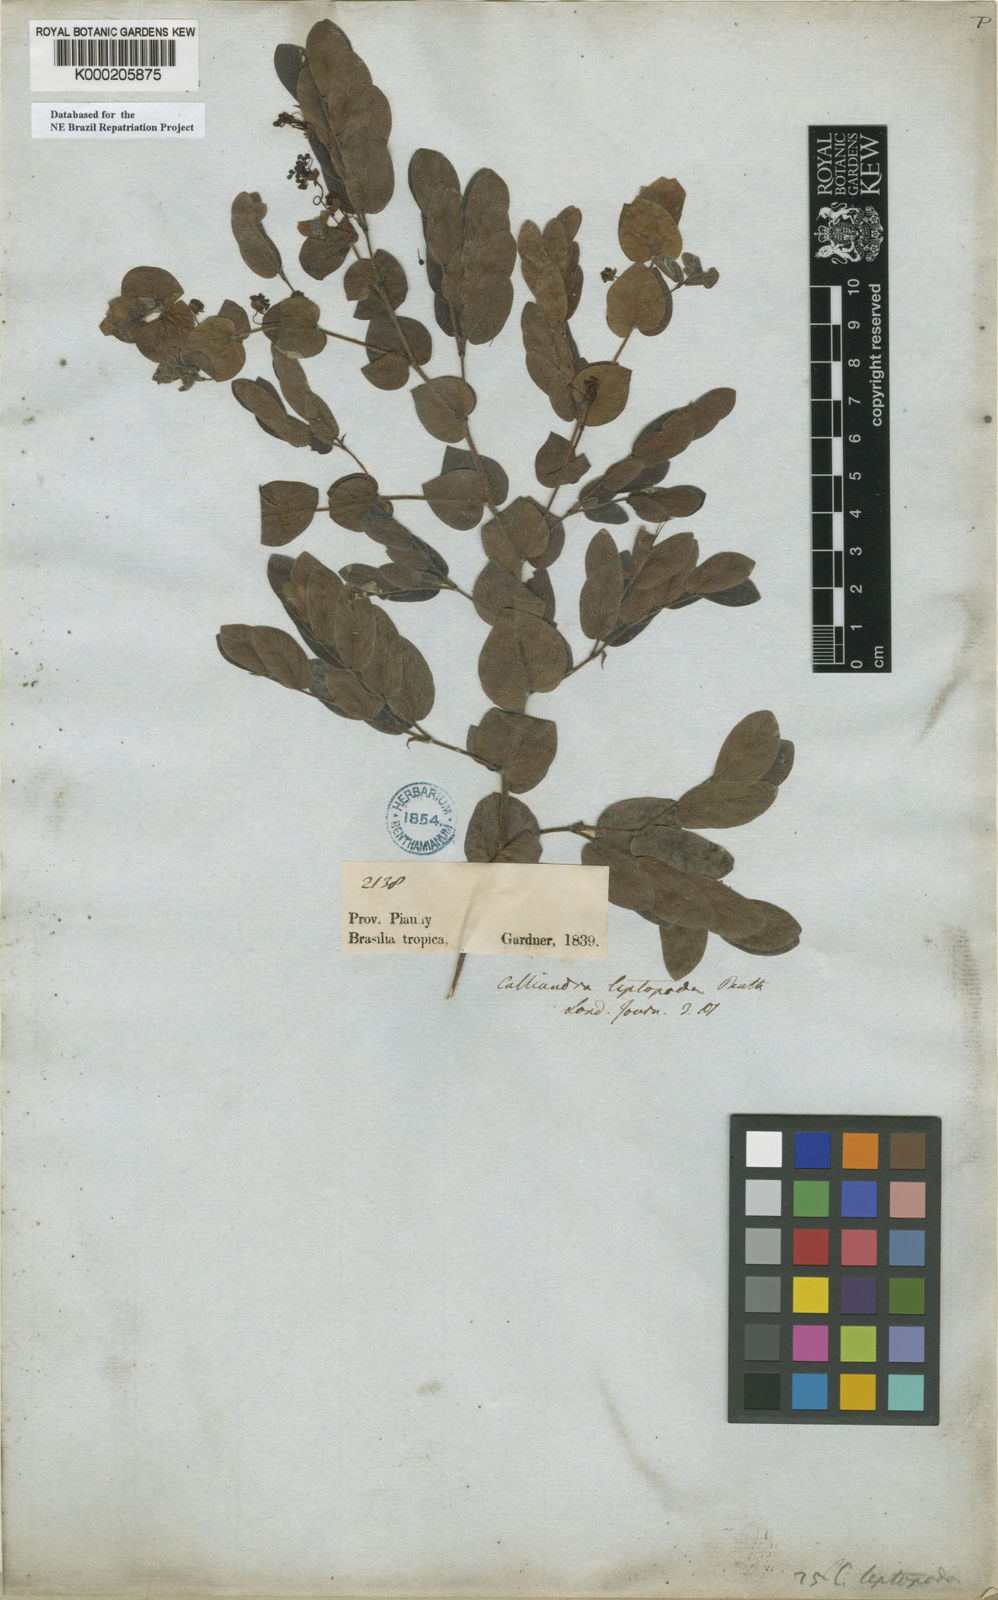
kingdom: Plantae
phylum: Tracheophyta
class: Magnoliopsida
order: Fabales
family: Fabaceae
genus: Calliandra
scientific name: Calliandra leptopoda
